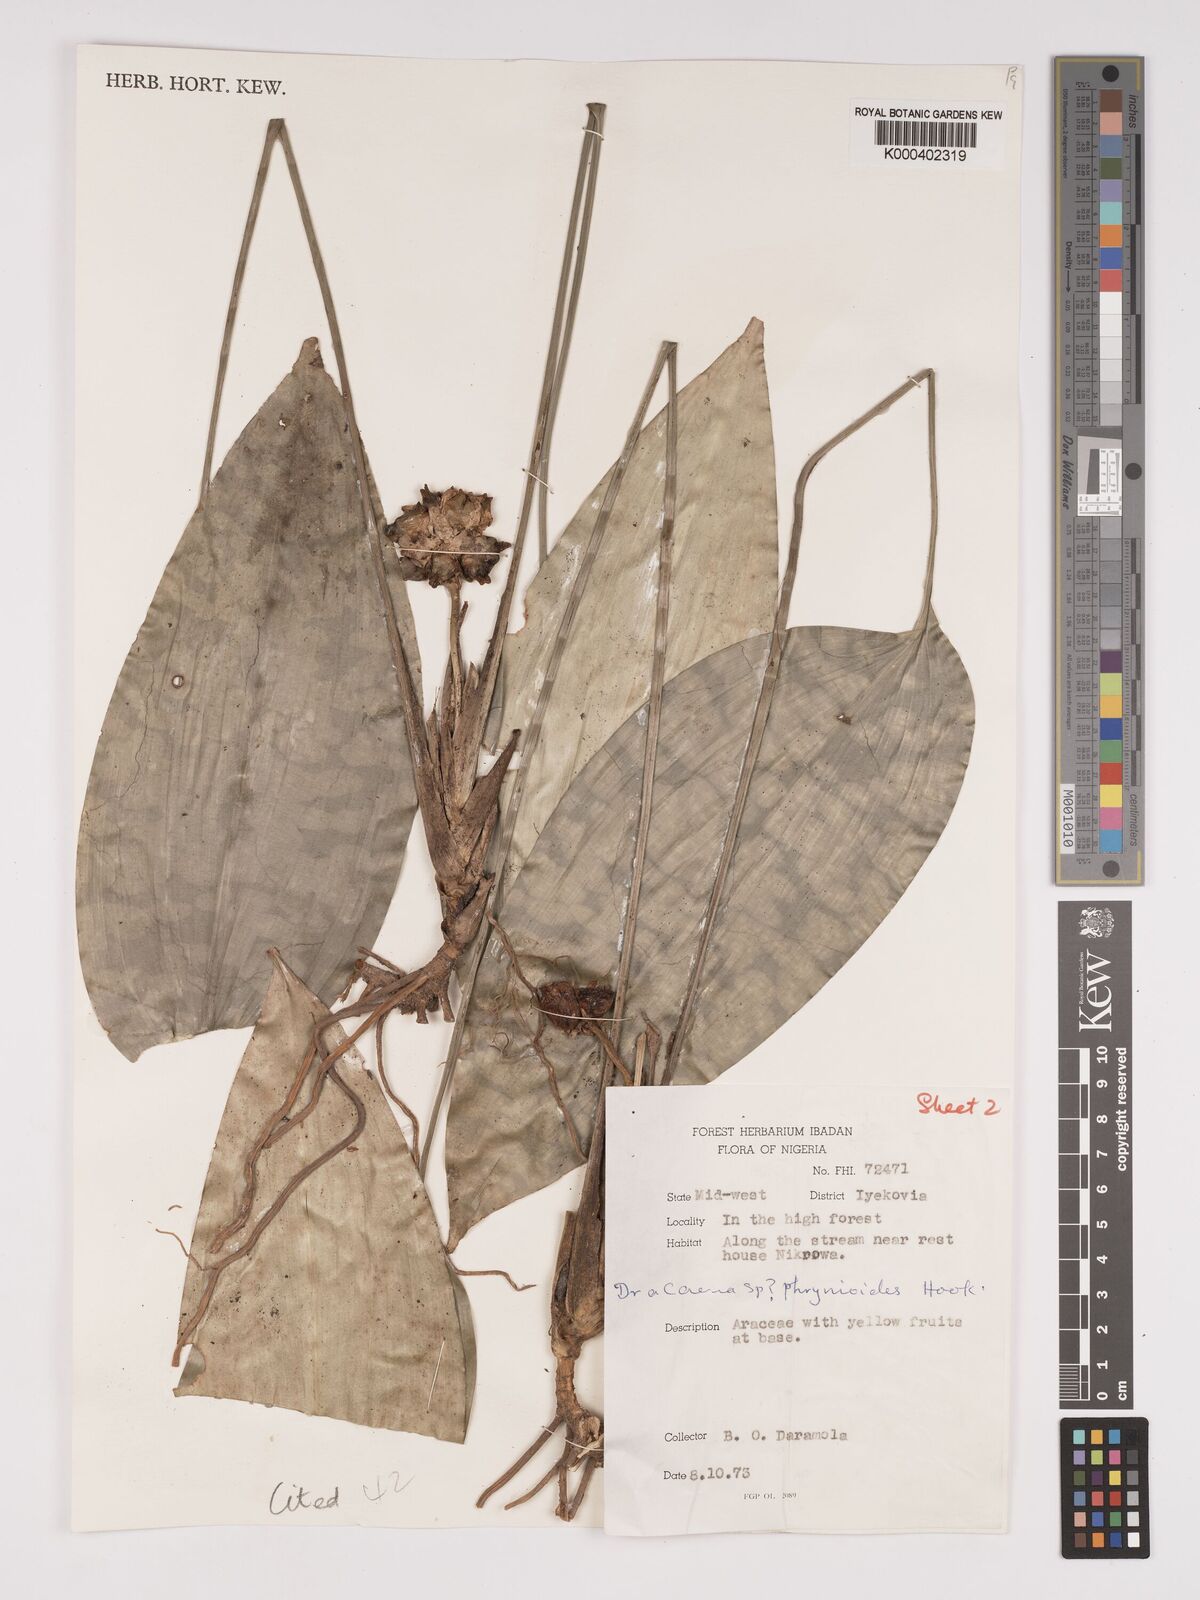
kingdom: Plantae
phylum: Tracheophyta
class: Liliopsida
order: Asparagales
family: Asparagaceae
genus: Dracaena
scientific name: Dracaena phrynioides
